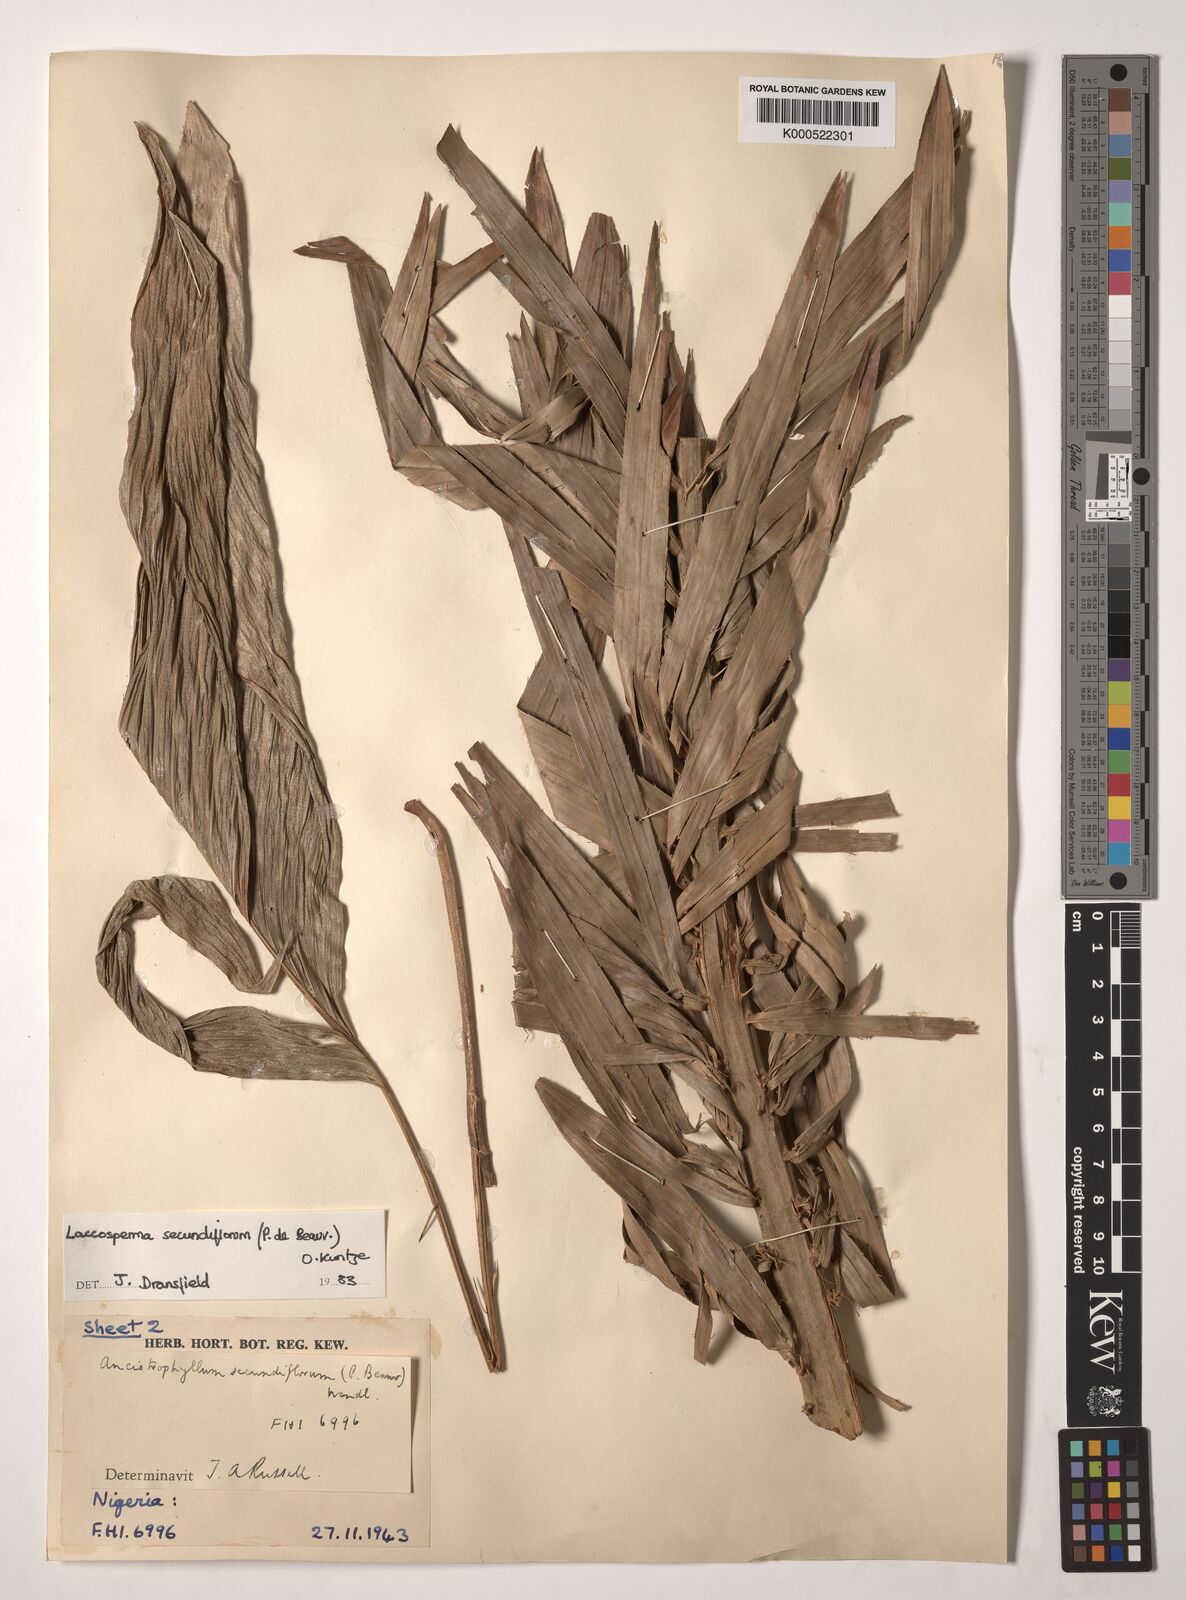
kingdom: Plantae
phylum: Tracheophyta
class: Liliopsida
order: Arecales
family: Arecaceae
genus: Laccosperma
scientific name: Laccosperma secundiflorum
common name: Rattan
